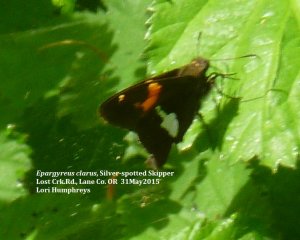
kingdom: Animalia
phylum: Arthropoda
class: Insecta
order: Lepidoptera
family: Hesperiidae
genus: Epargyreus
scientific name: Epargyreus clarus
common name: Silver-spotted Skipper
